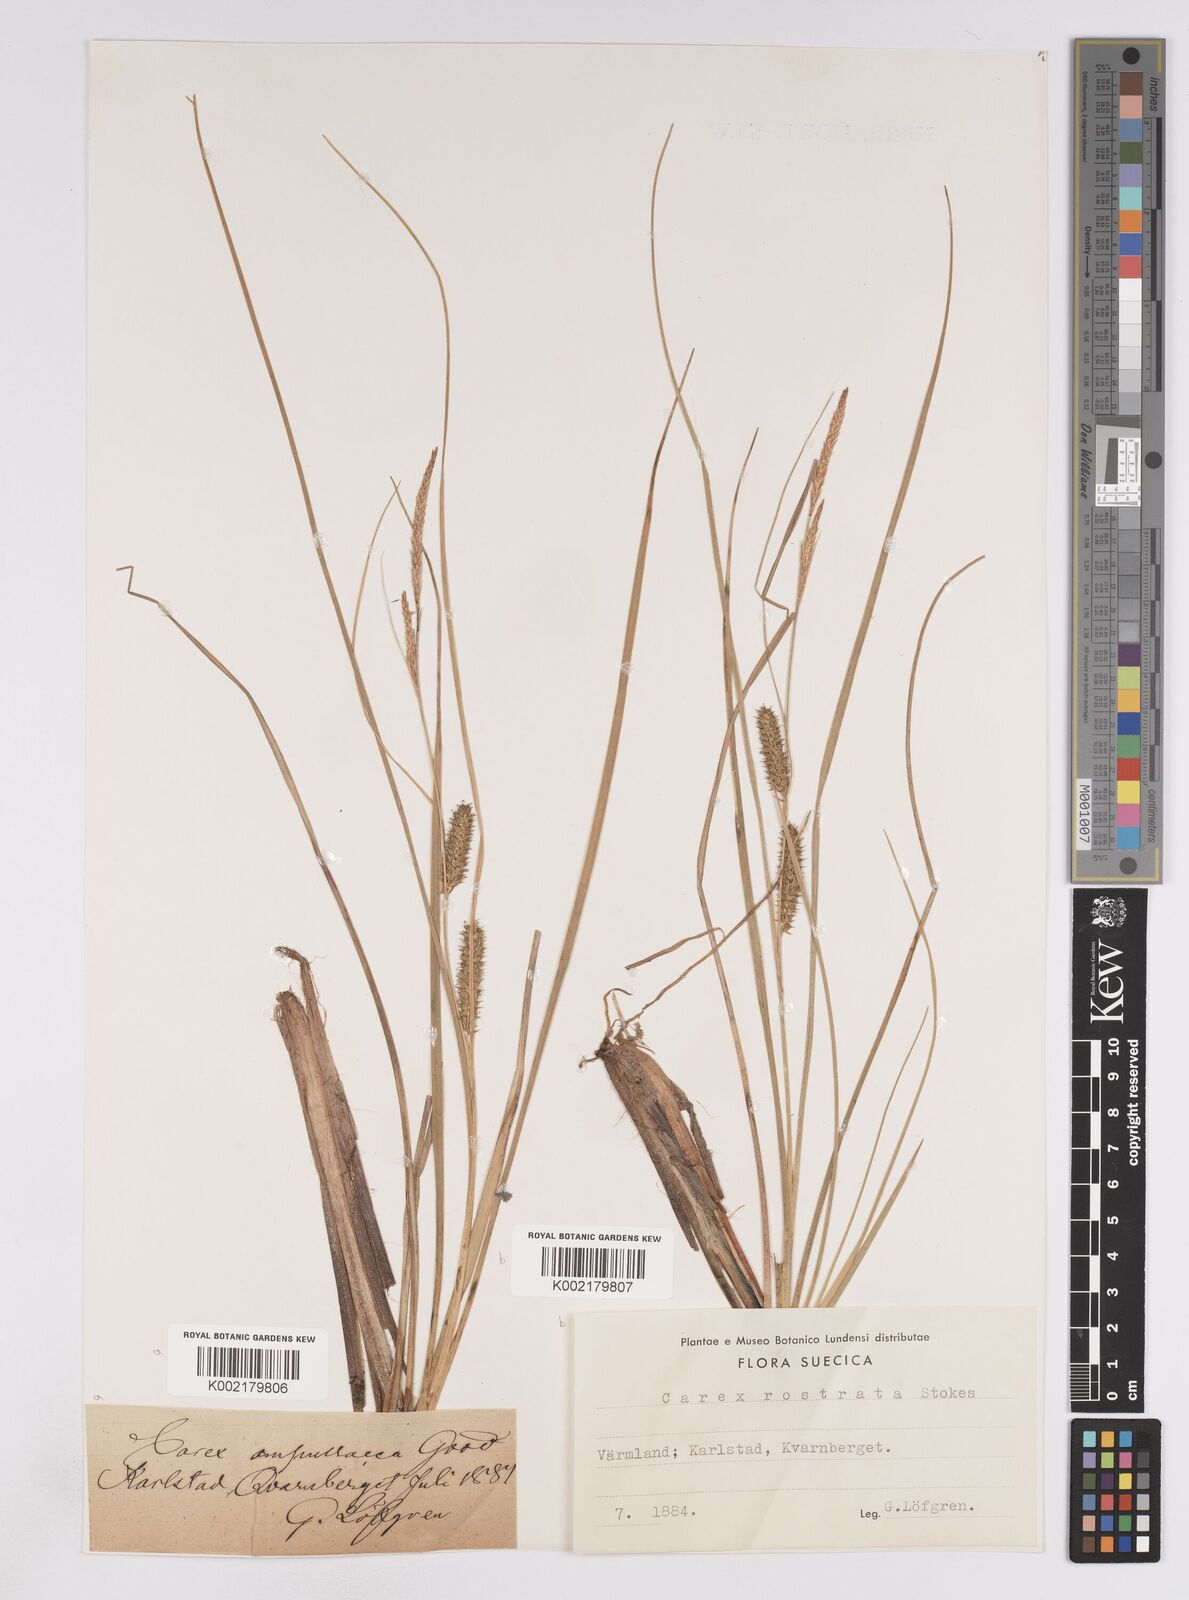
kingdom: Plantae
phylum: Tracheophyta
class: Liliopsida
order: Poales
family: Cyperaceae
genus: Carex
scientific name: Carex rostrata
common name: Bottle sedge
